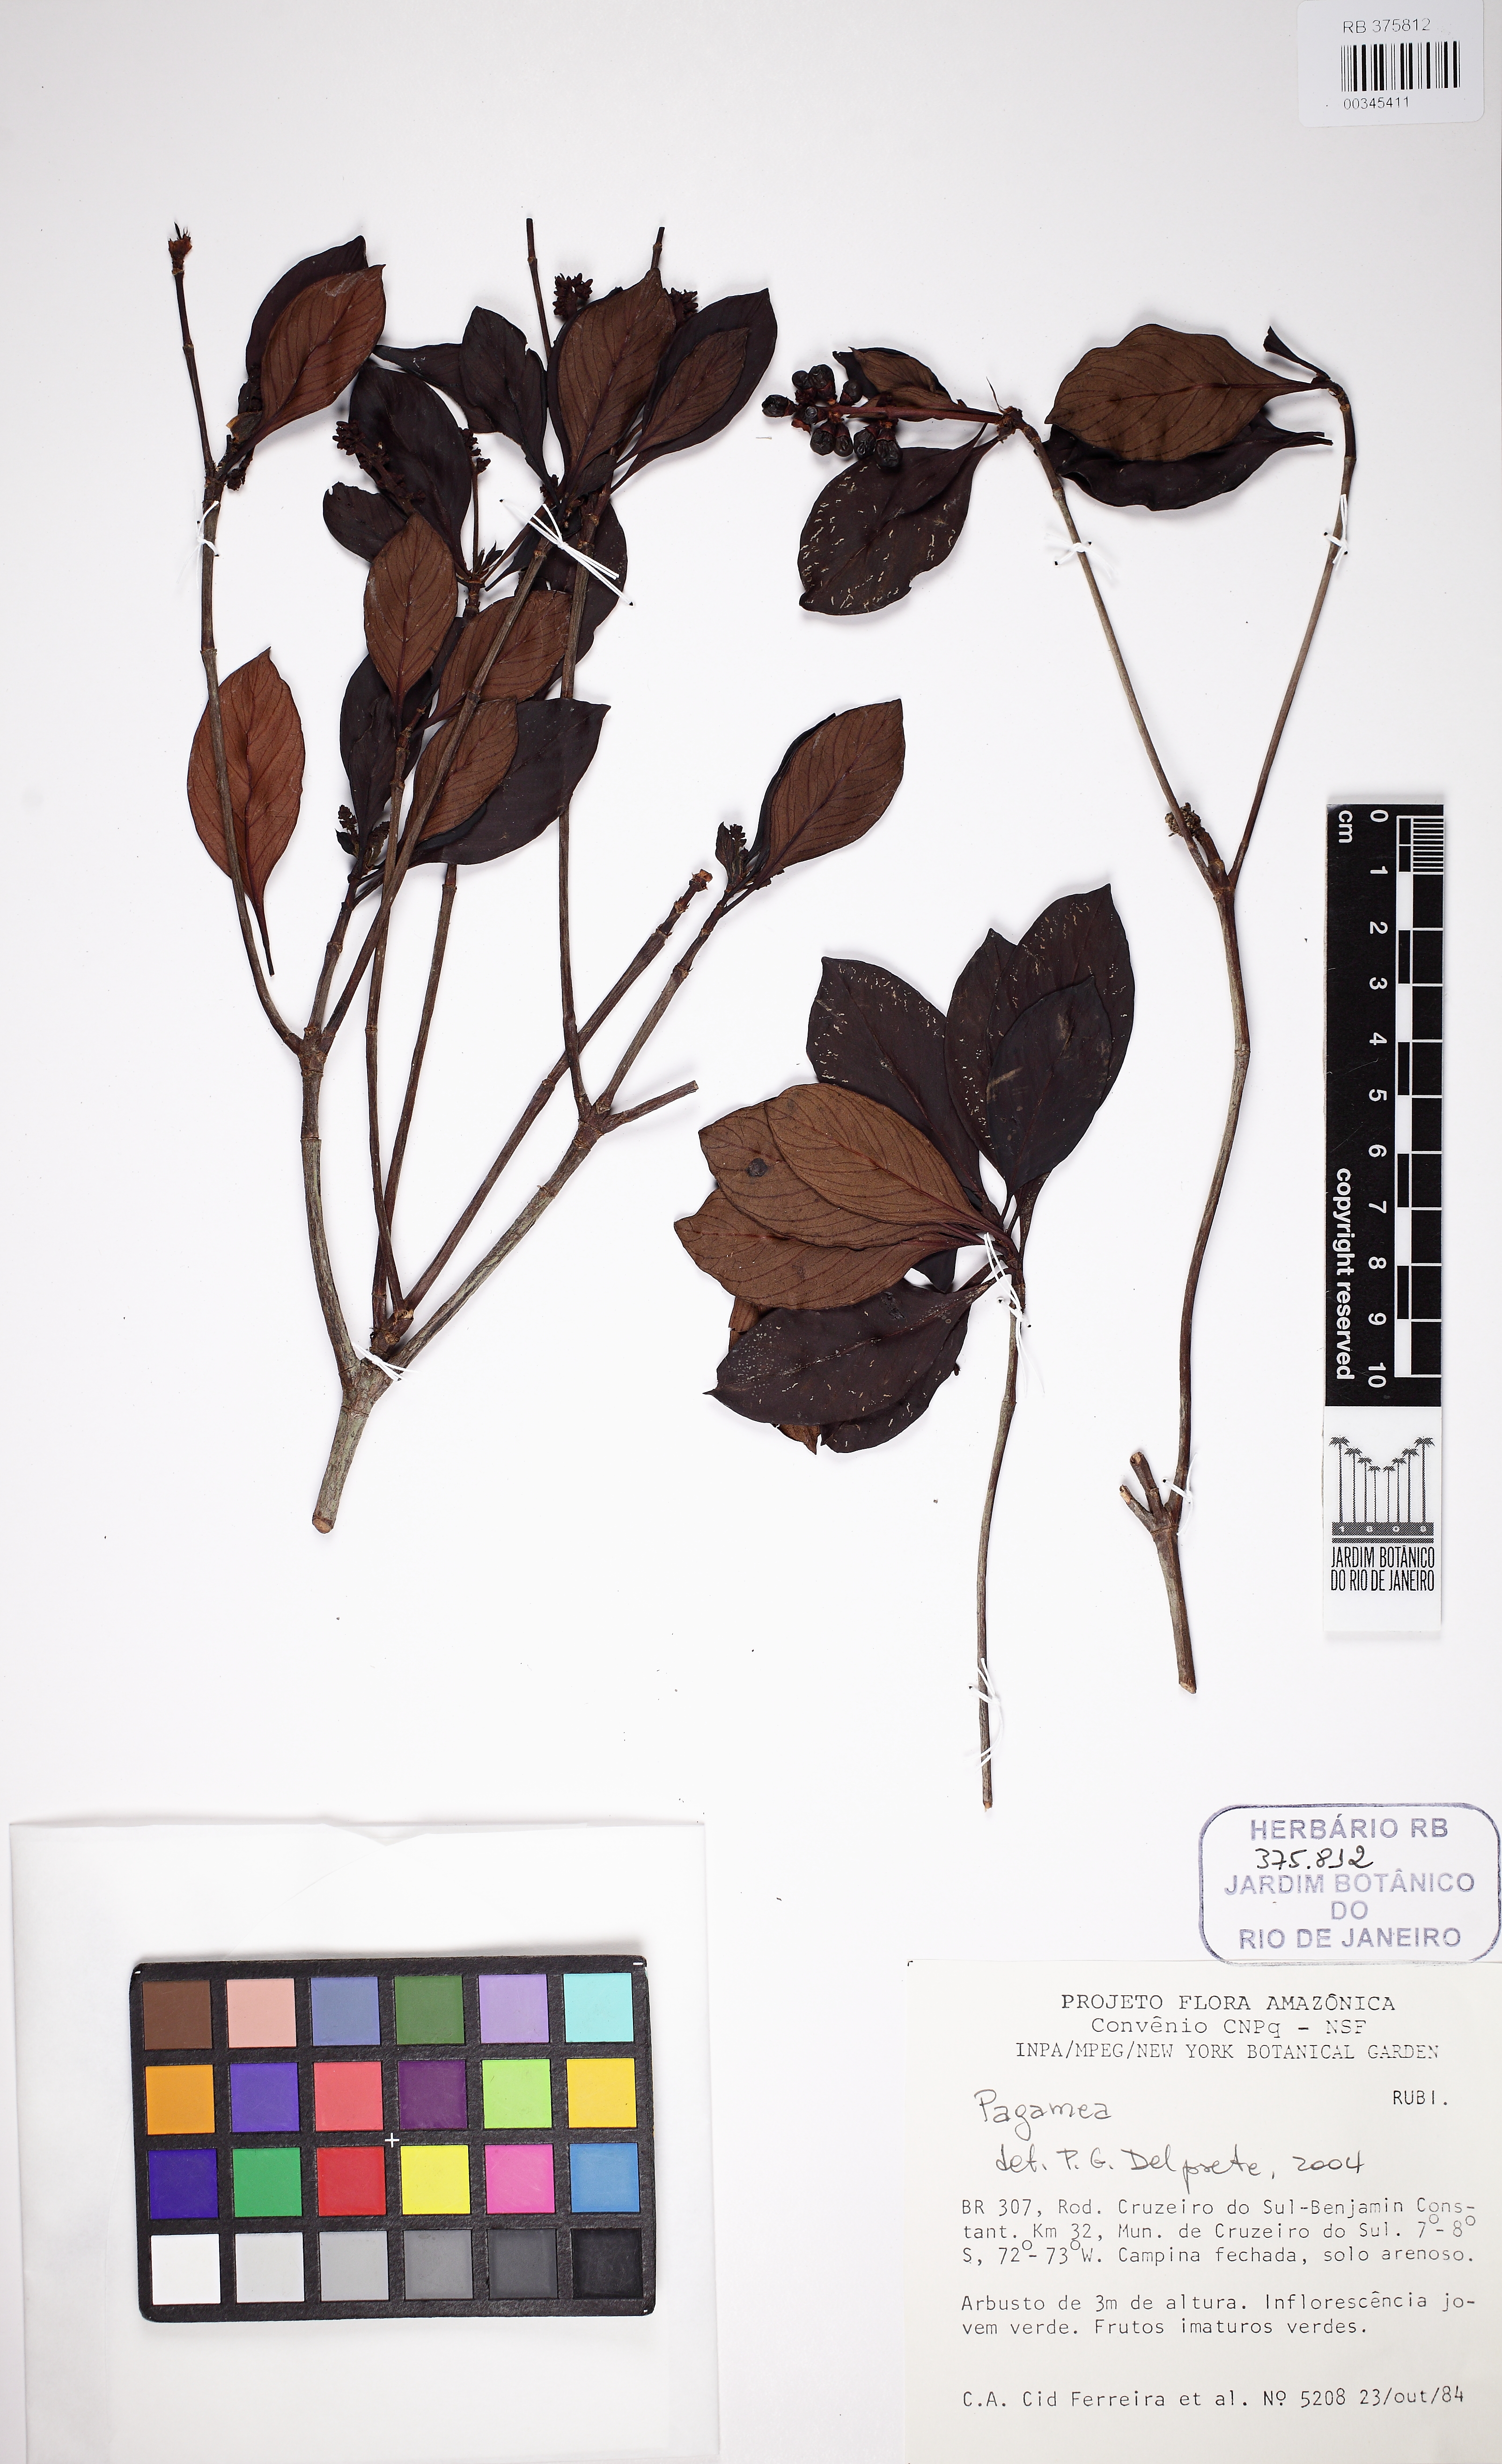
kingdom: Plantae
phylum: Tracheophyta
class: Magnoliopsida
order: Gentianales
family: Rubiaceae
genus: Pagamea
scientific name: Pagamea
